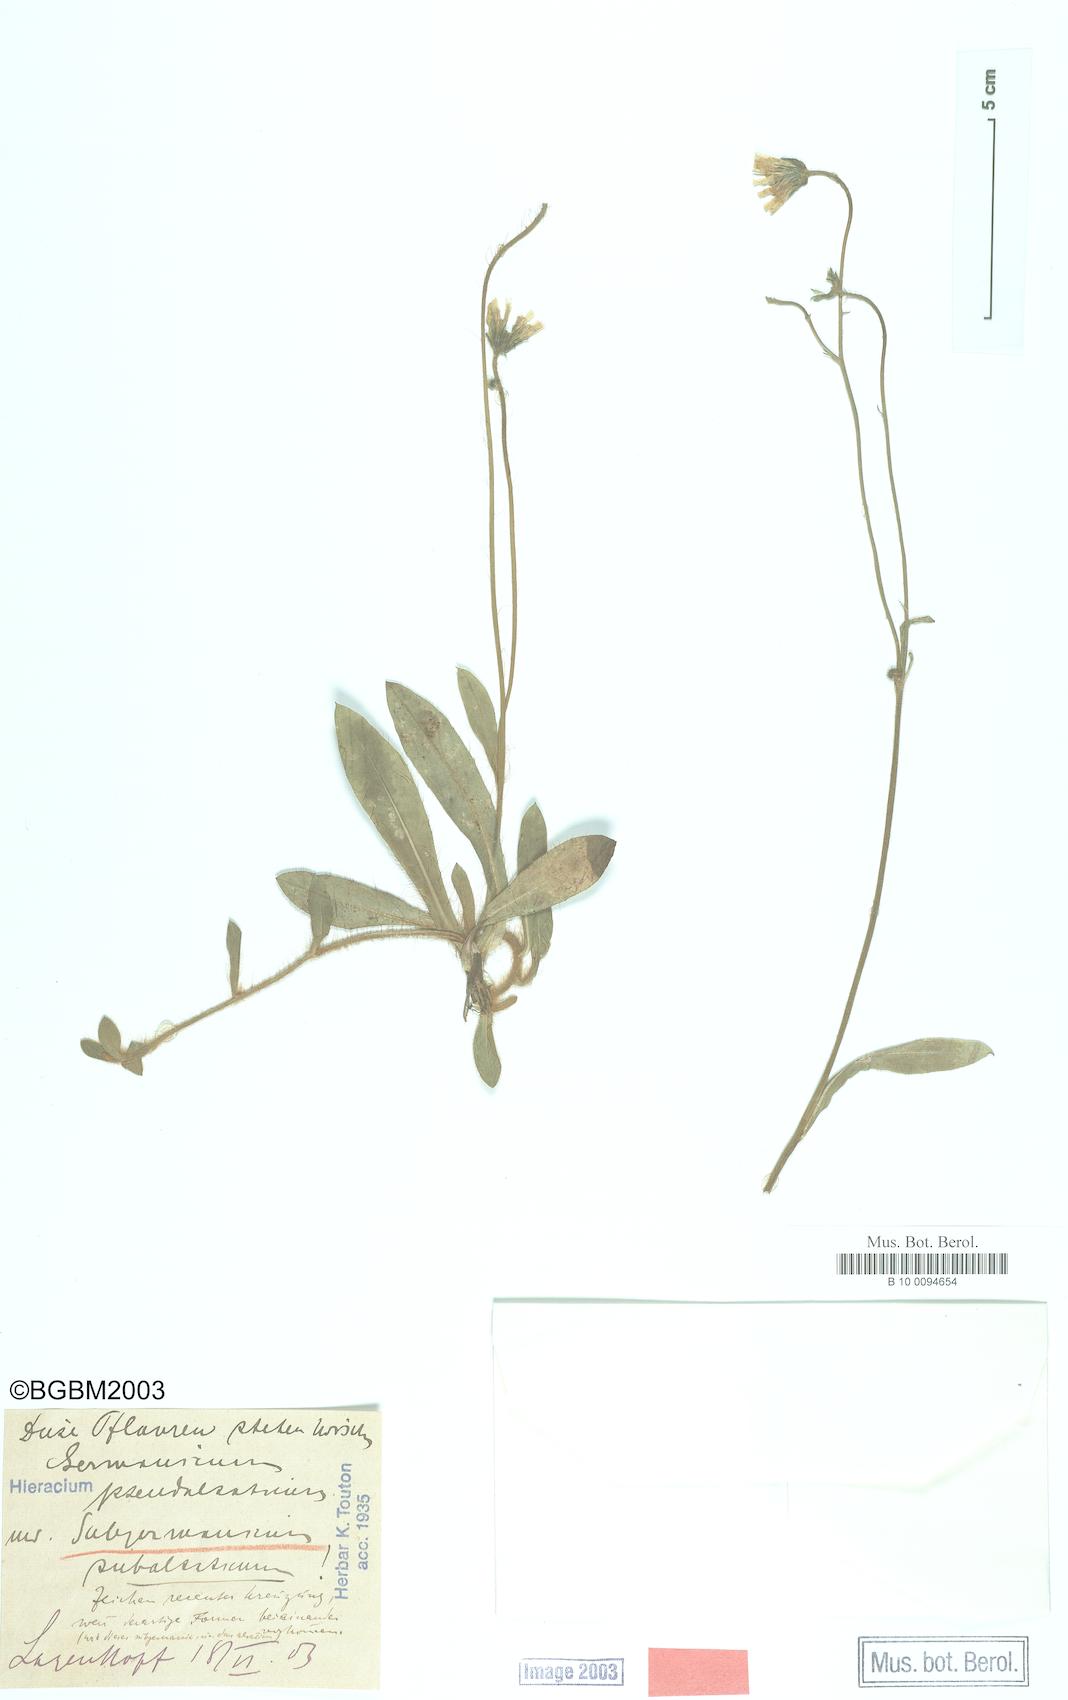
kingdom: Plantae
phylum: Tracheophyta
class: Magnoliopsida
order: Asterales
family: Asteraceae
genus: Pilosella
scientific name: Pilosella pilosellina
